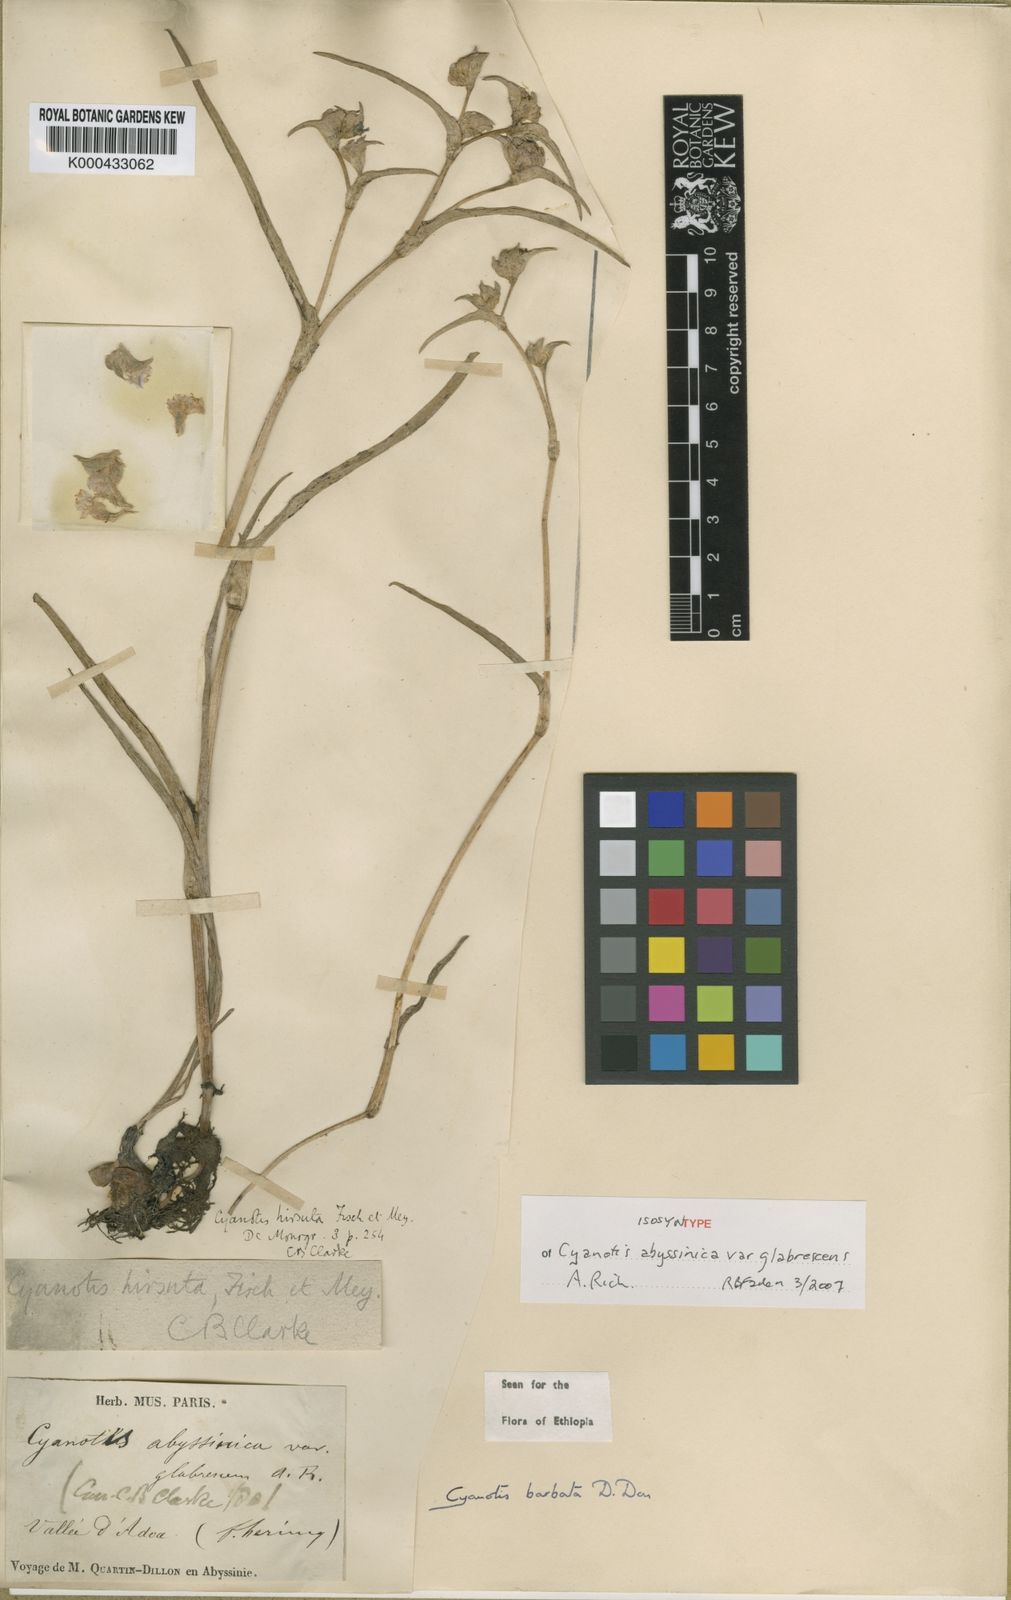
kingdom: Plantae
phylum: Tracheophyta
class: Liliopsida
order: Commelinales
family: Commelinaceae
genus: Cyanotis
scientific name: Cyanotis vaga
